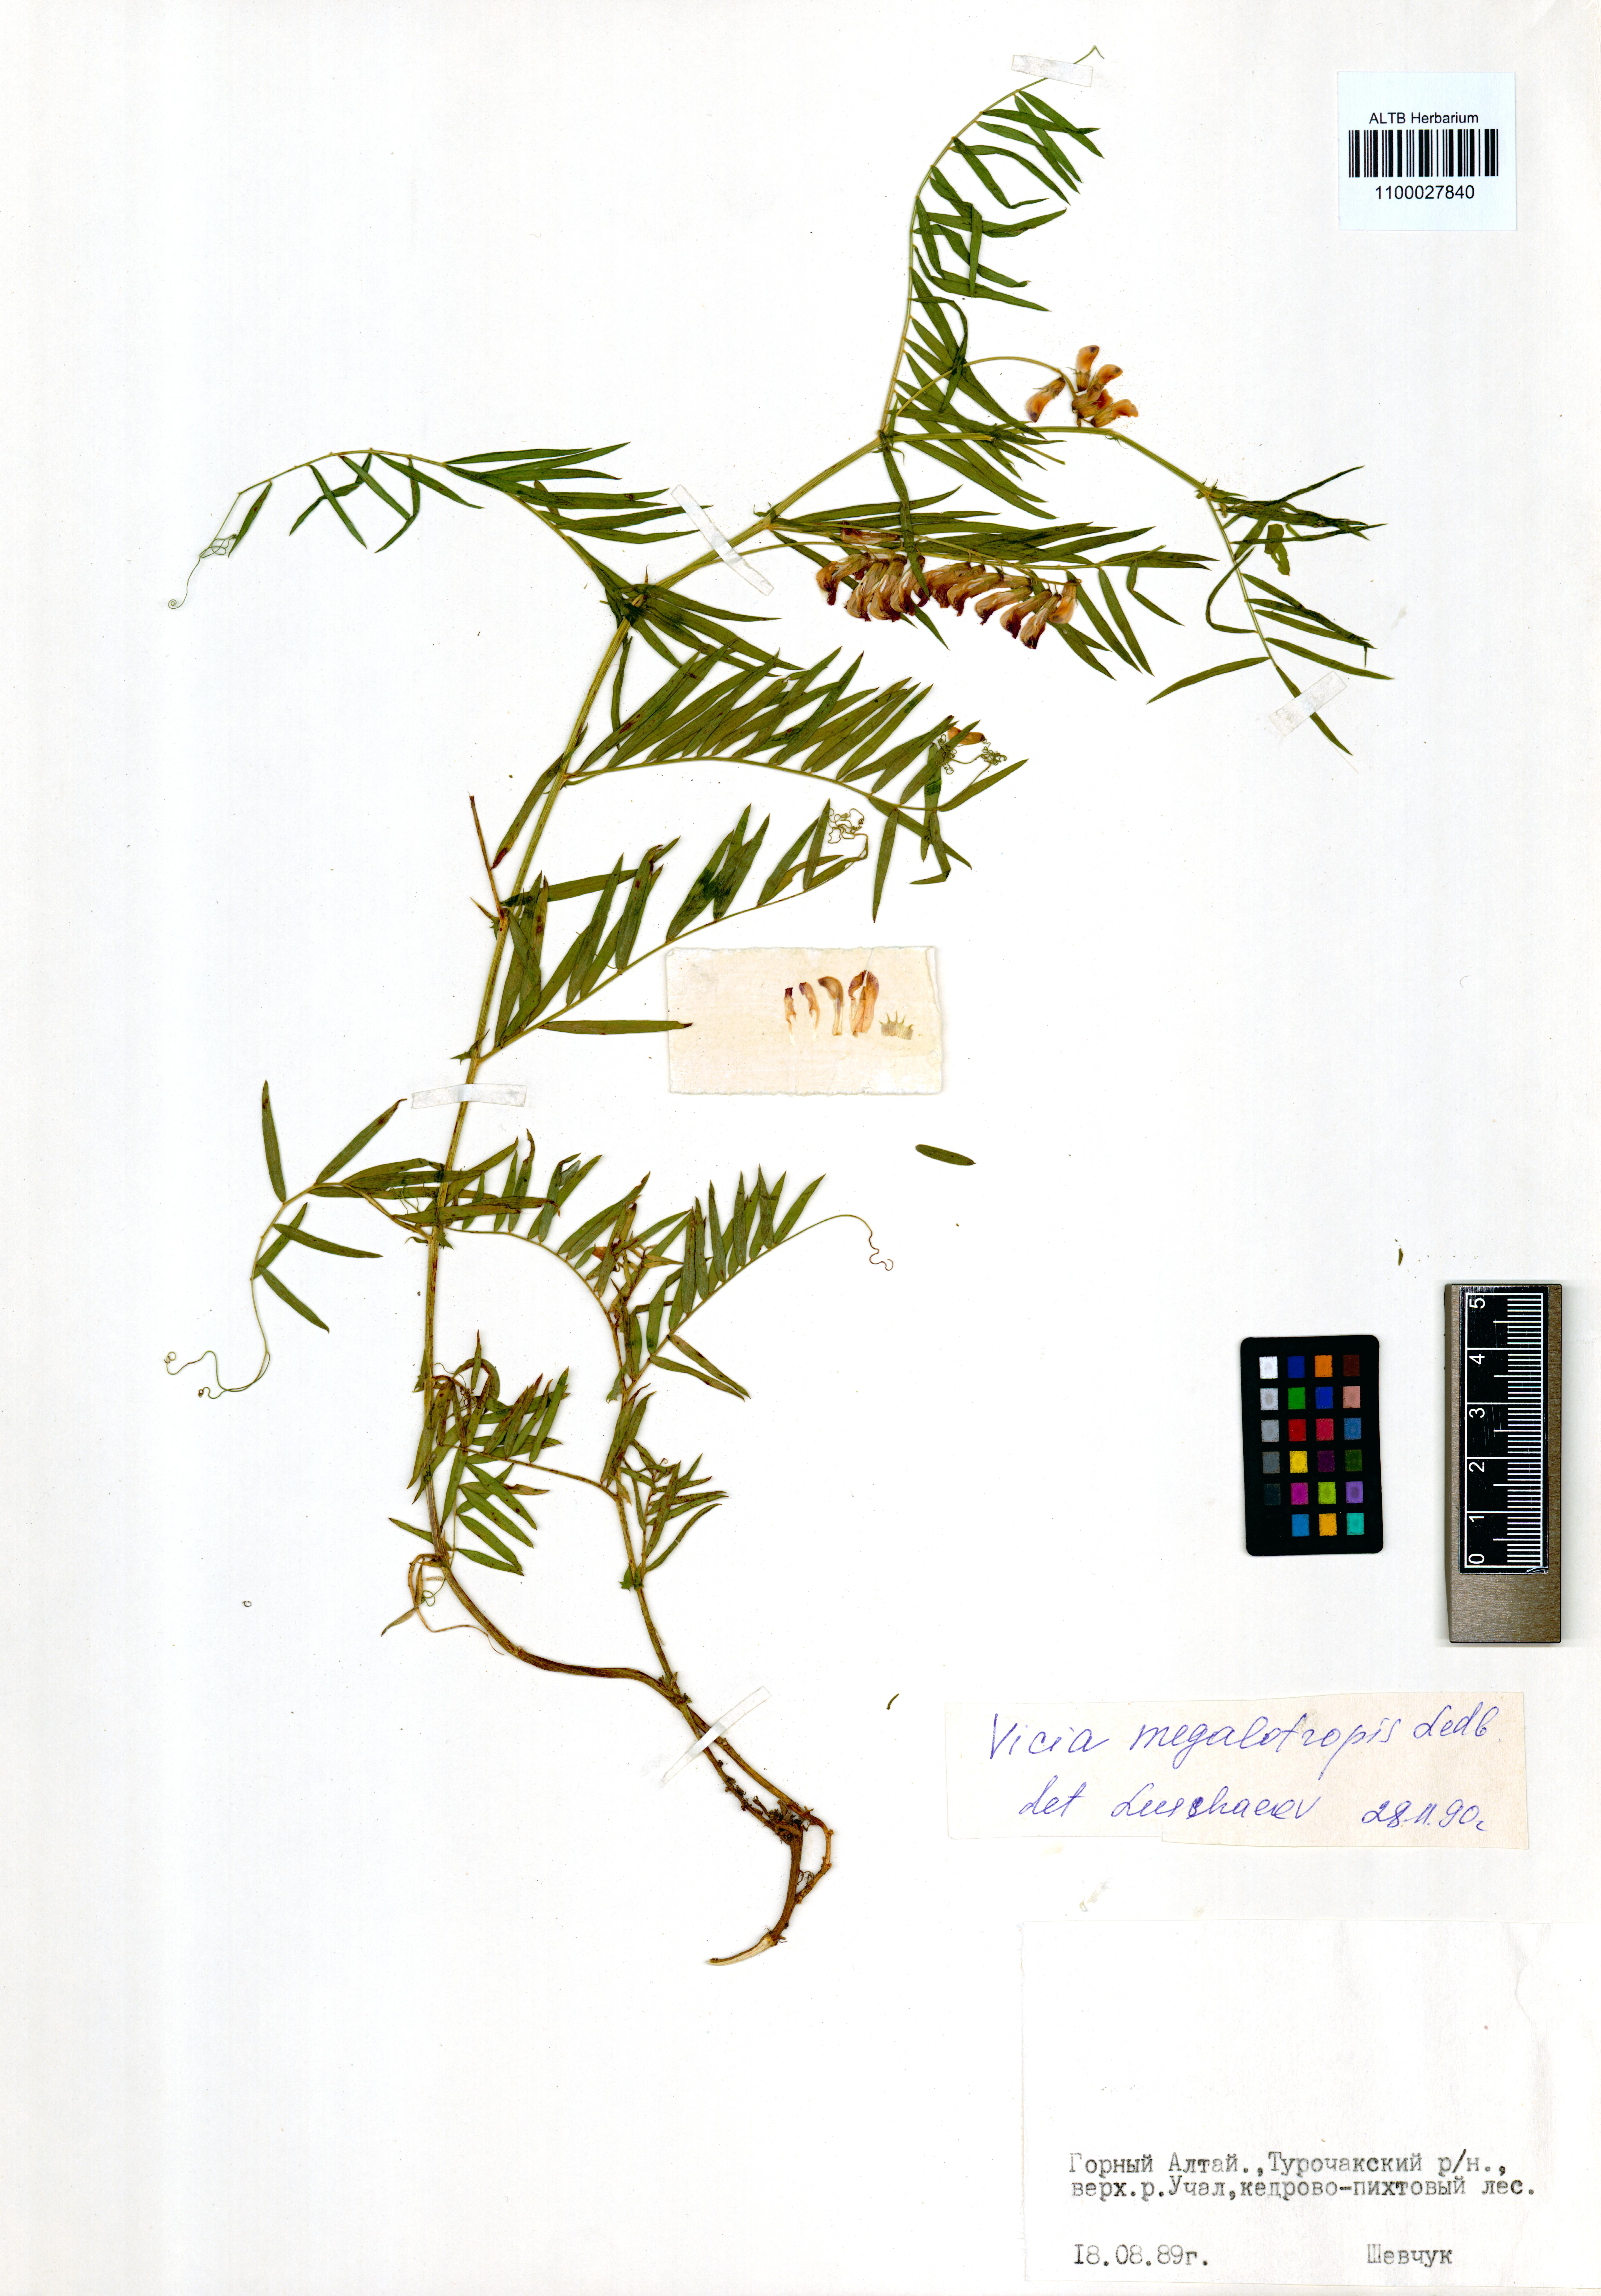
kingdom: Plantae
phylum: Tracheophyta
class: Magnoliopsida
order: Fabales
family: Fabaceae
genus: Vicia
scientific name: Vicia megalotropis
